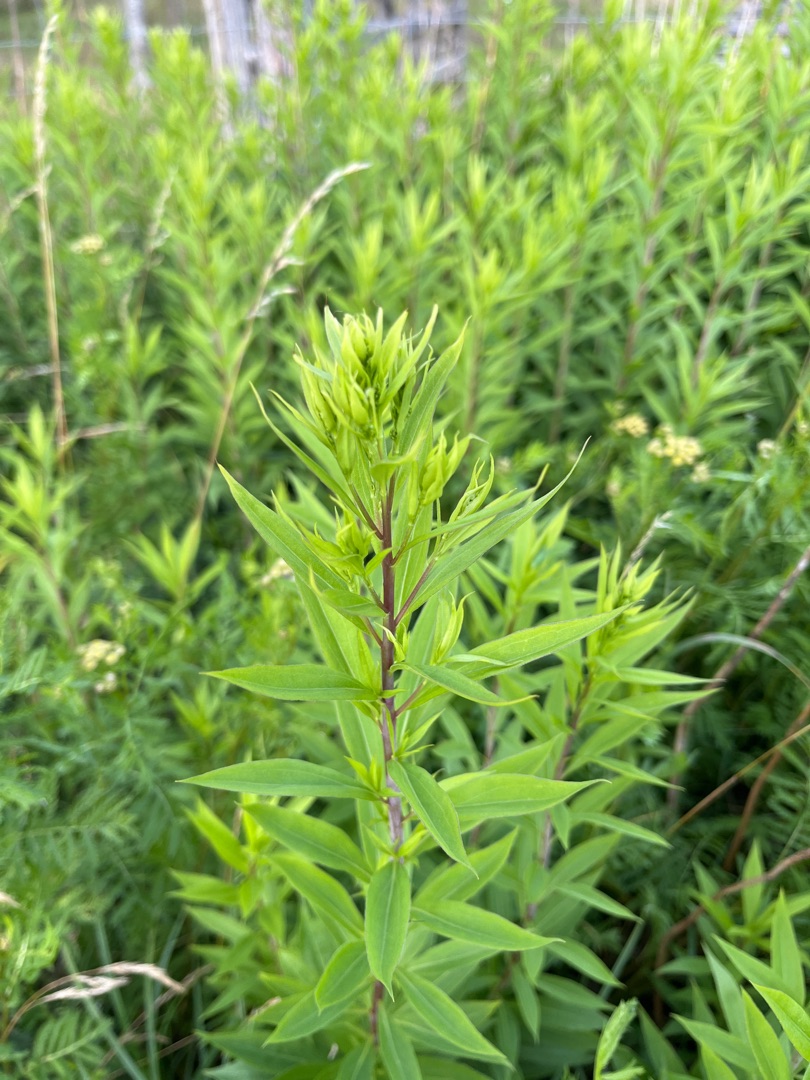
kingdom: Plantae
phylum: Tracheophyta
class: Magnoliopsida
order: Asterales
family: Asteraceae
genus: Solidago
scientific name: Solidago gigantea
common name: Sildig gyldenris
